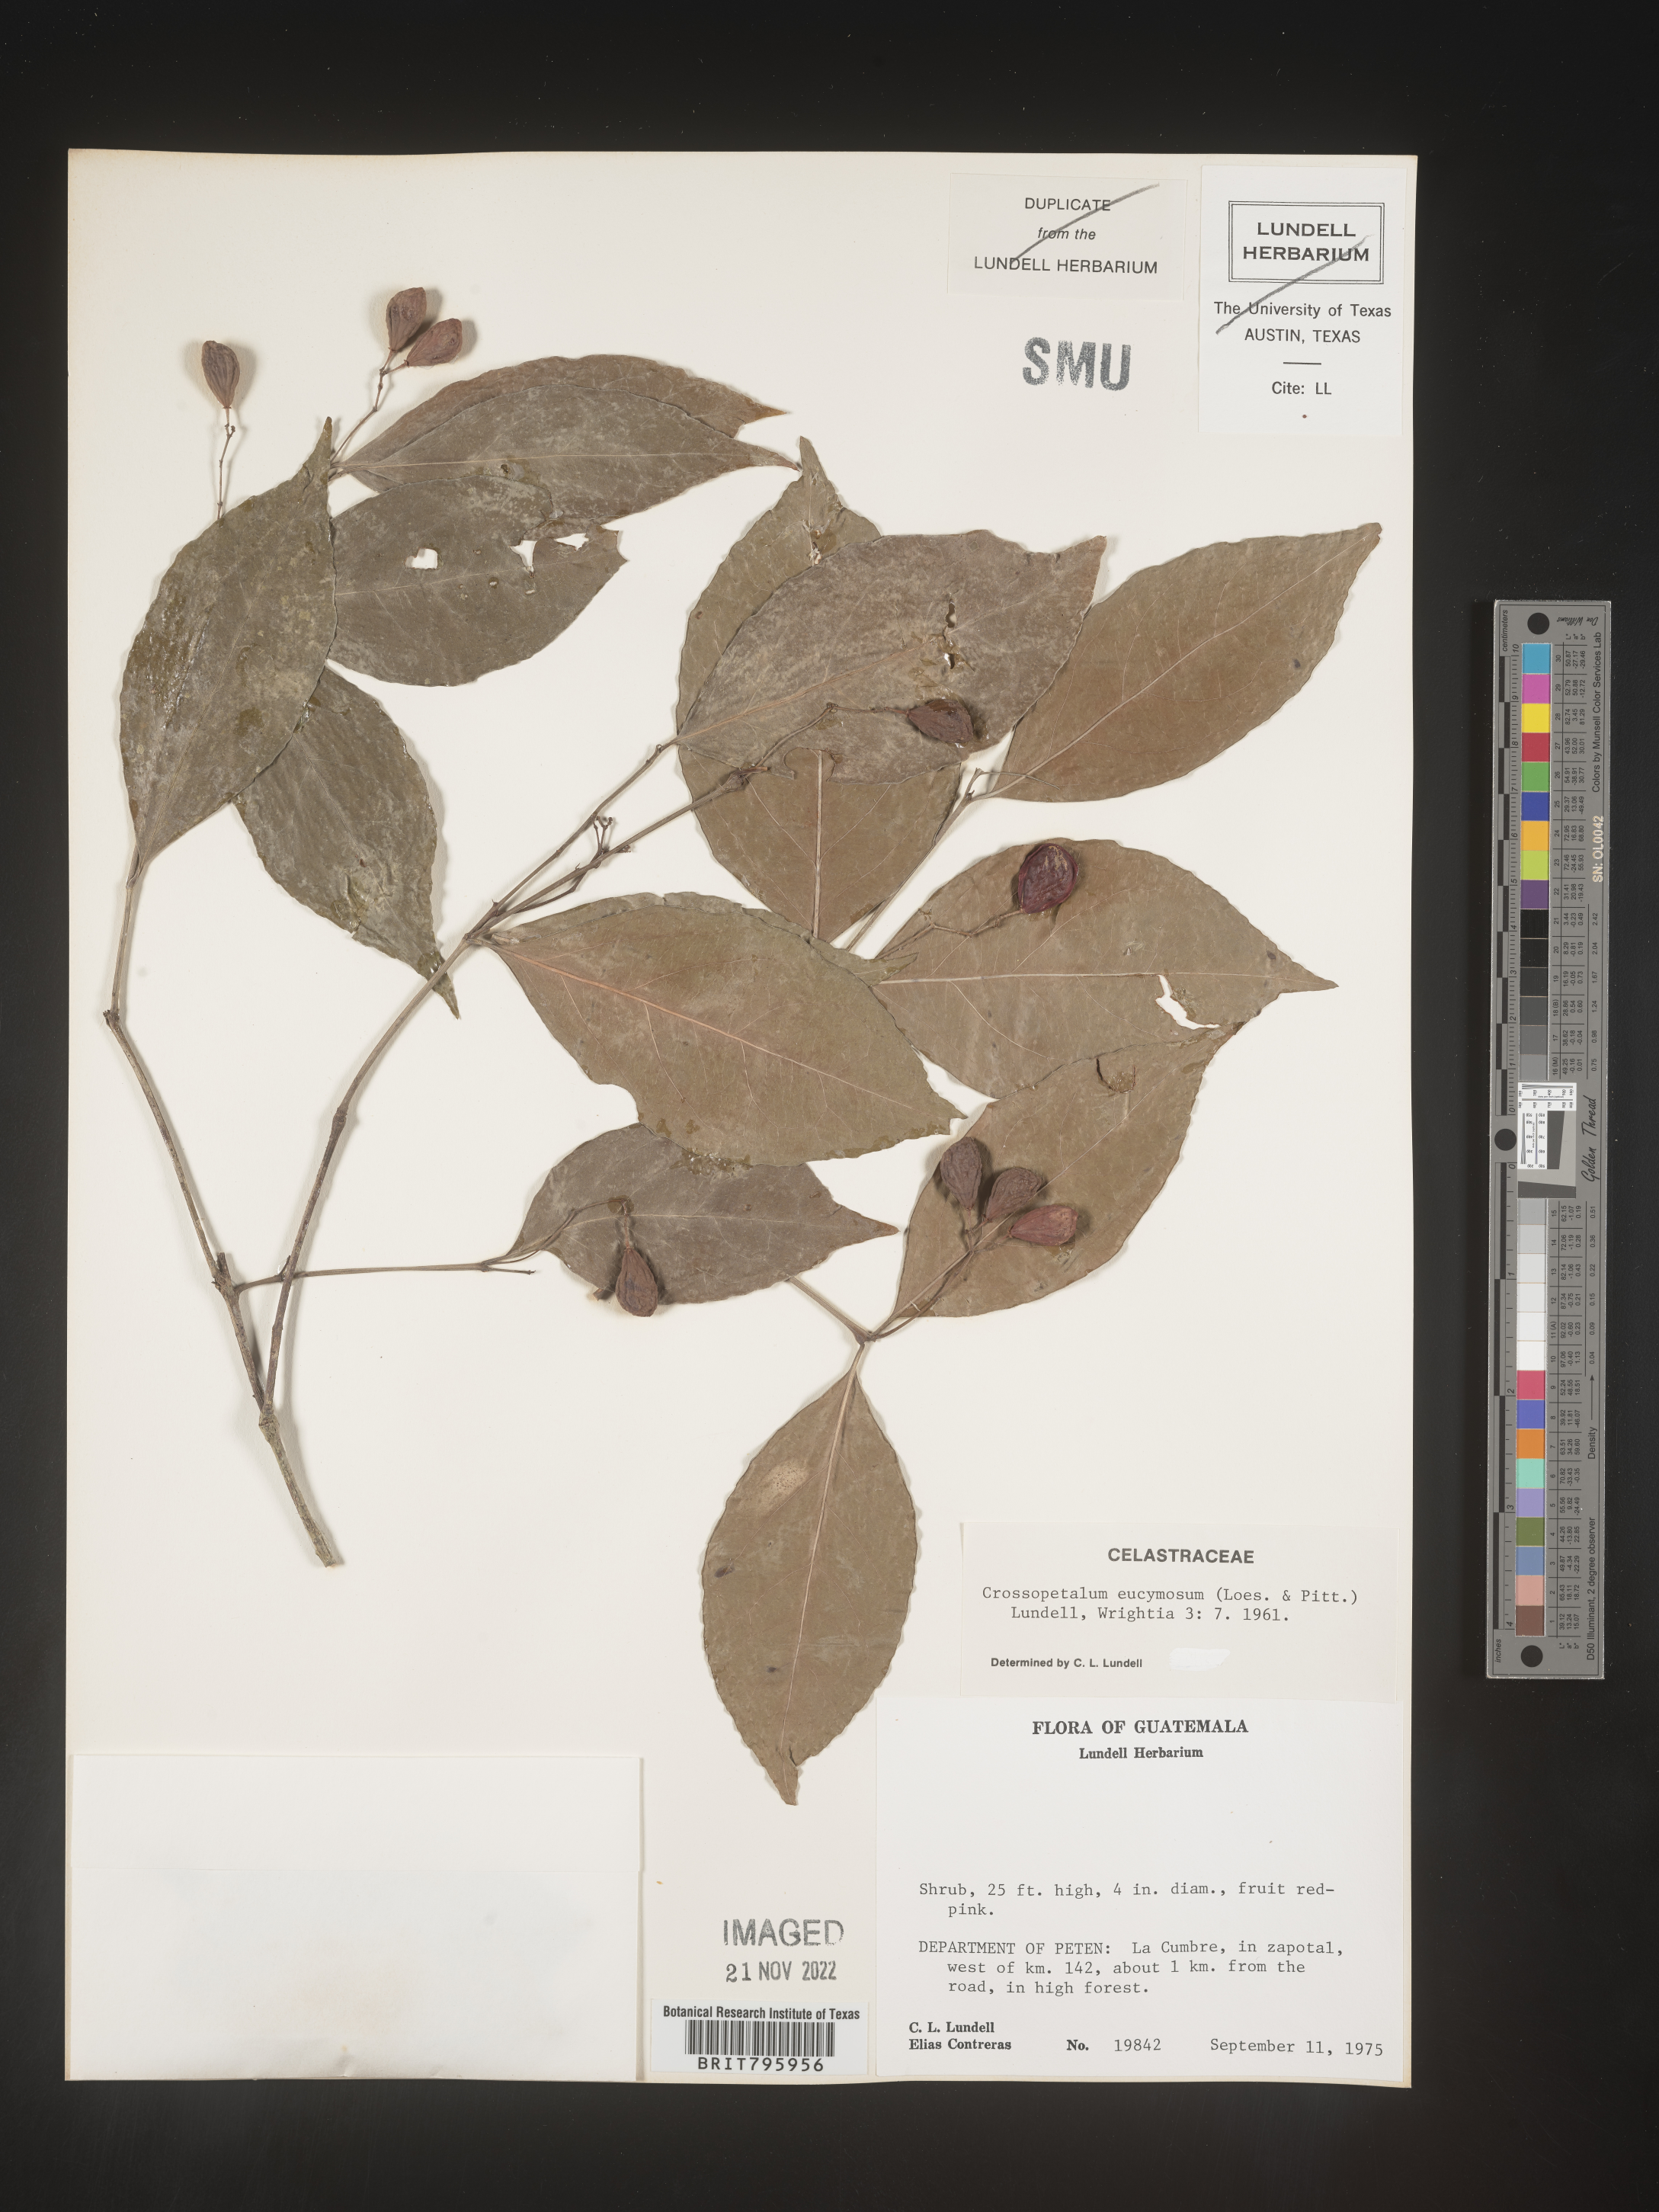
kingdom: Plantae
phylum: Tracheophyta
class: Magnoliopsida
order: Celastrales
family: Celastraceae
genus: Crossopetalum
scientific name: Crossopetalum
